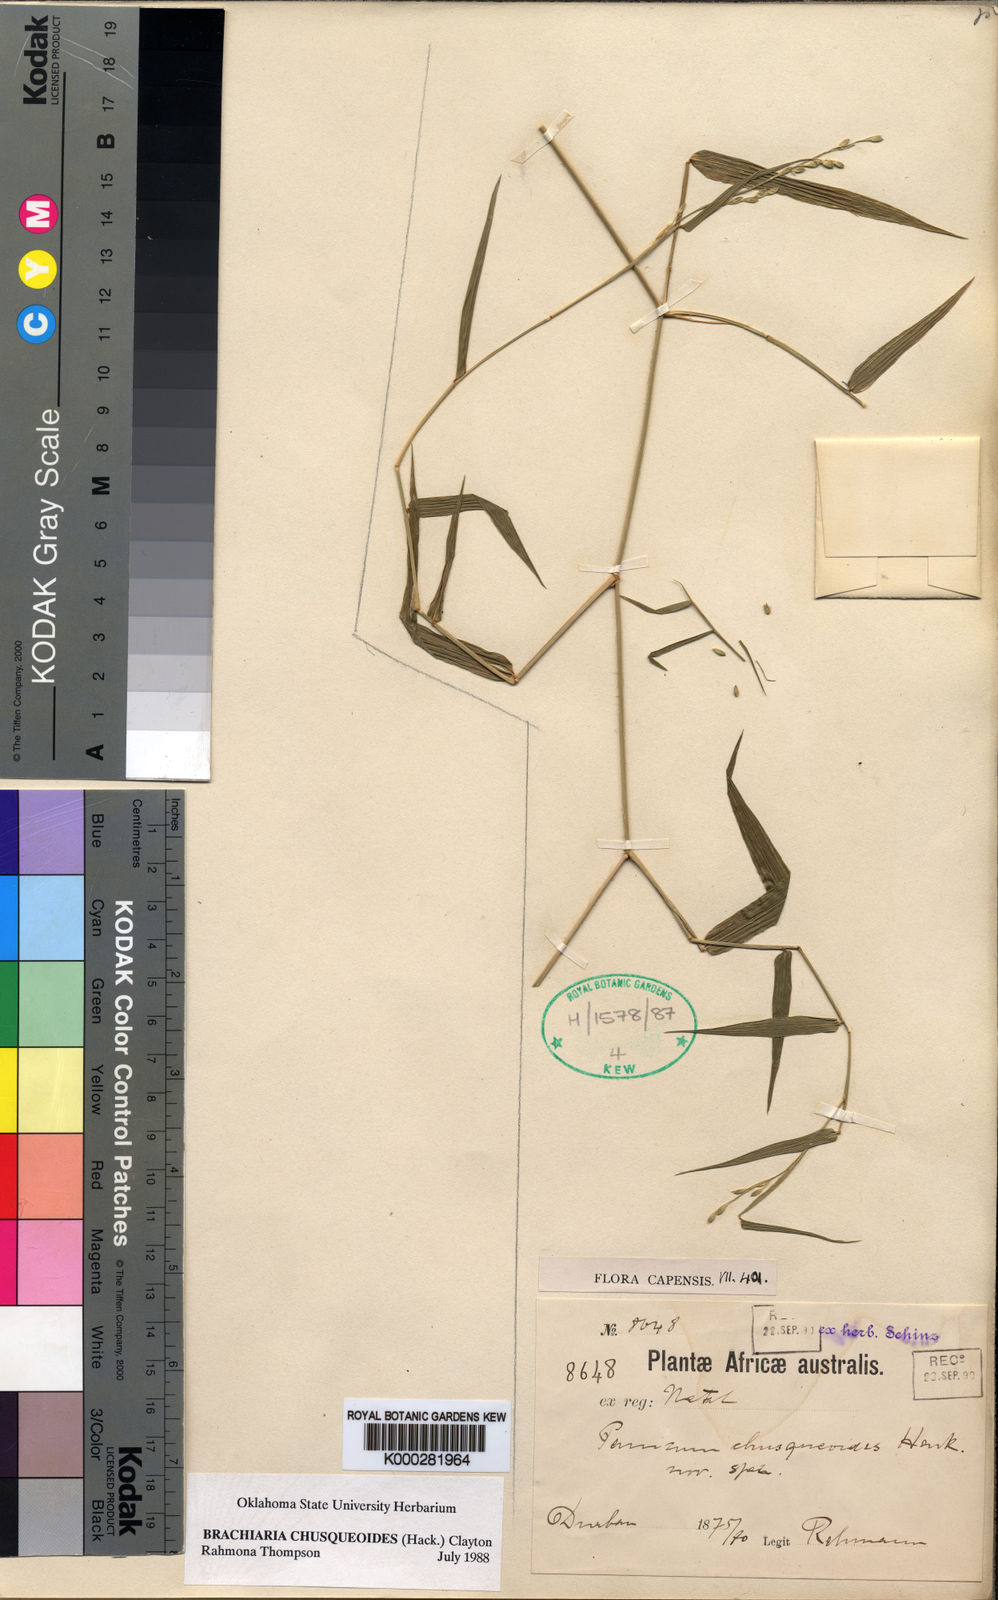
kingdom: Plantae
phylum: Tracheophyta
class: Liliopsida
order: Poales
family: Poaceae
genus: Urochloa
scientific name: Urochloa chusqueoides
